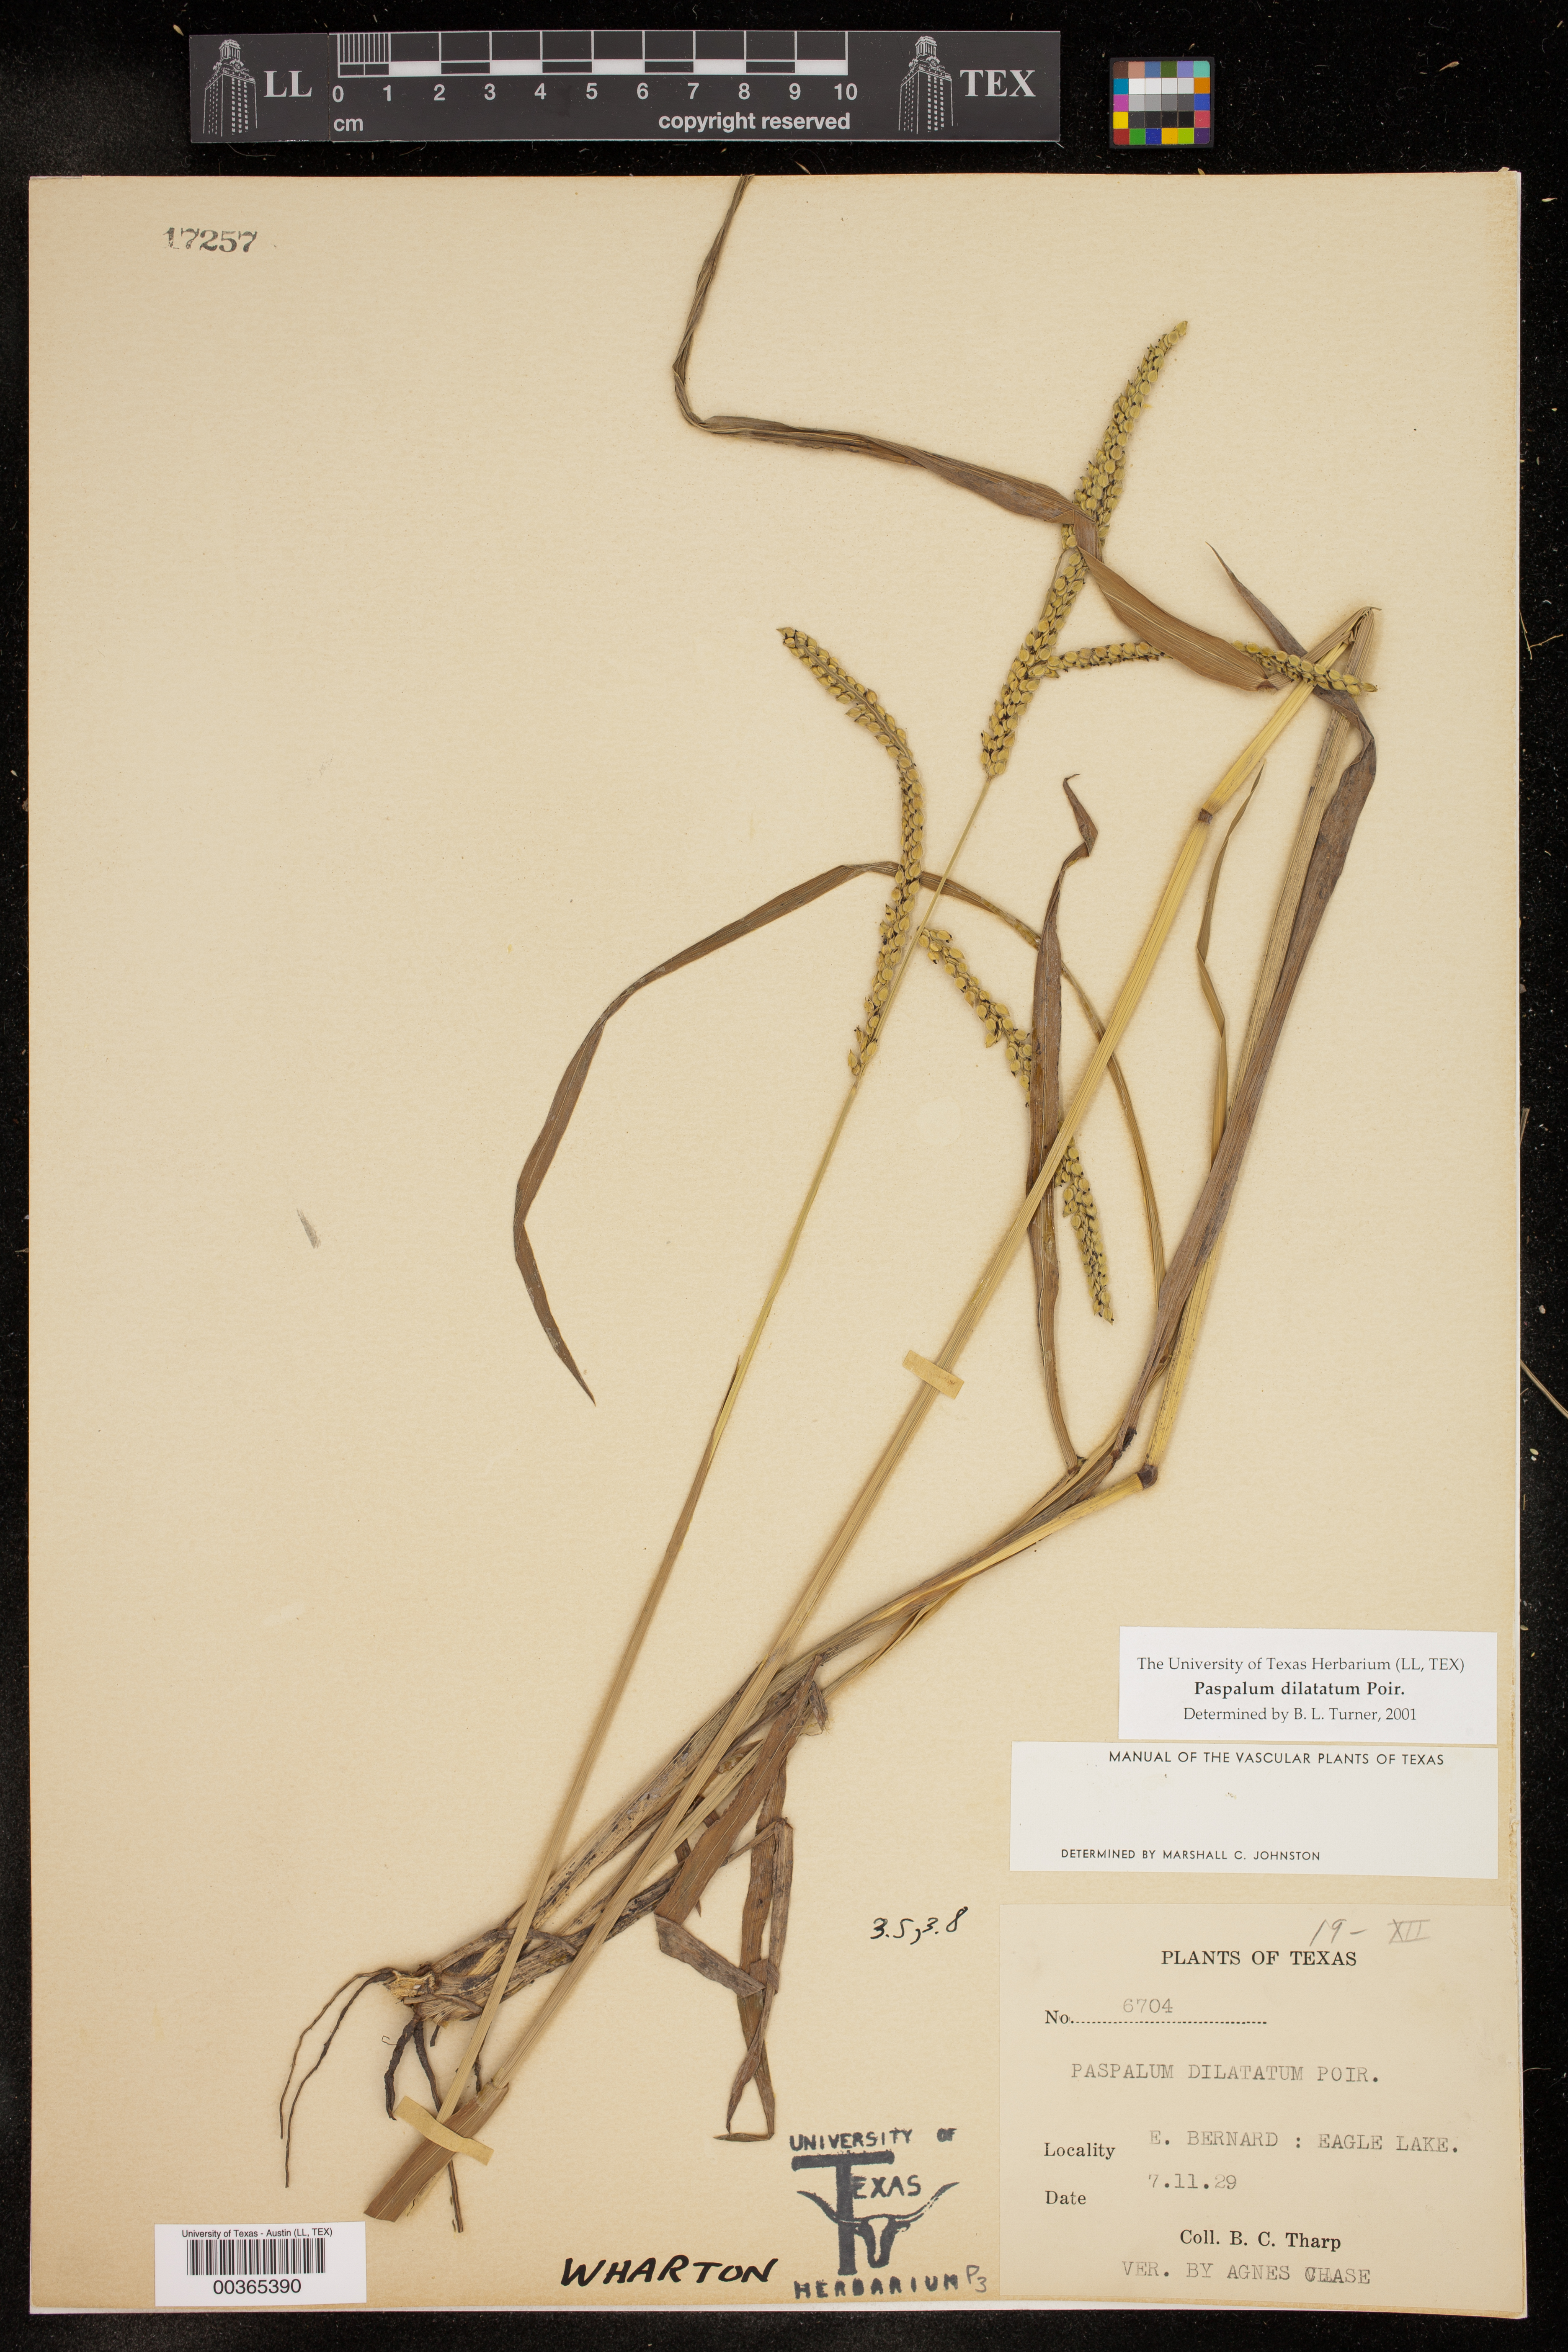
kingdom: Plantae
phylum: Tracheophyta
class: Liliopsida
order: Poales
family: Poaceae
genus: Paspalum
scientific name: Paspalum dilatatum
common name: Dallisgrass
